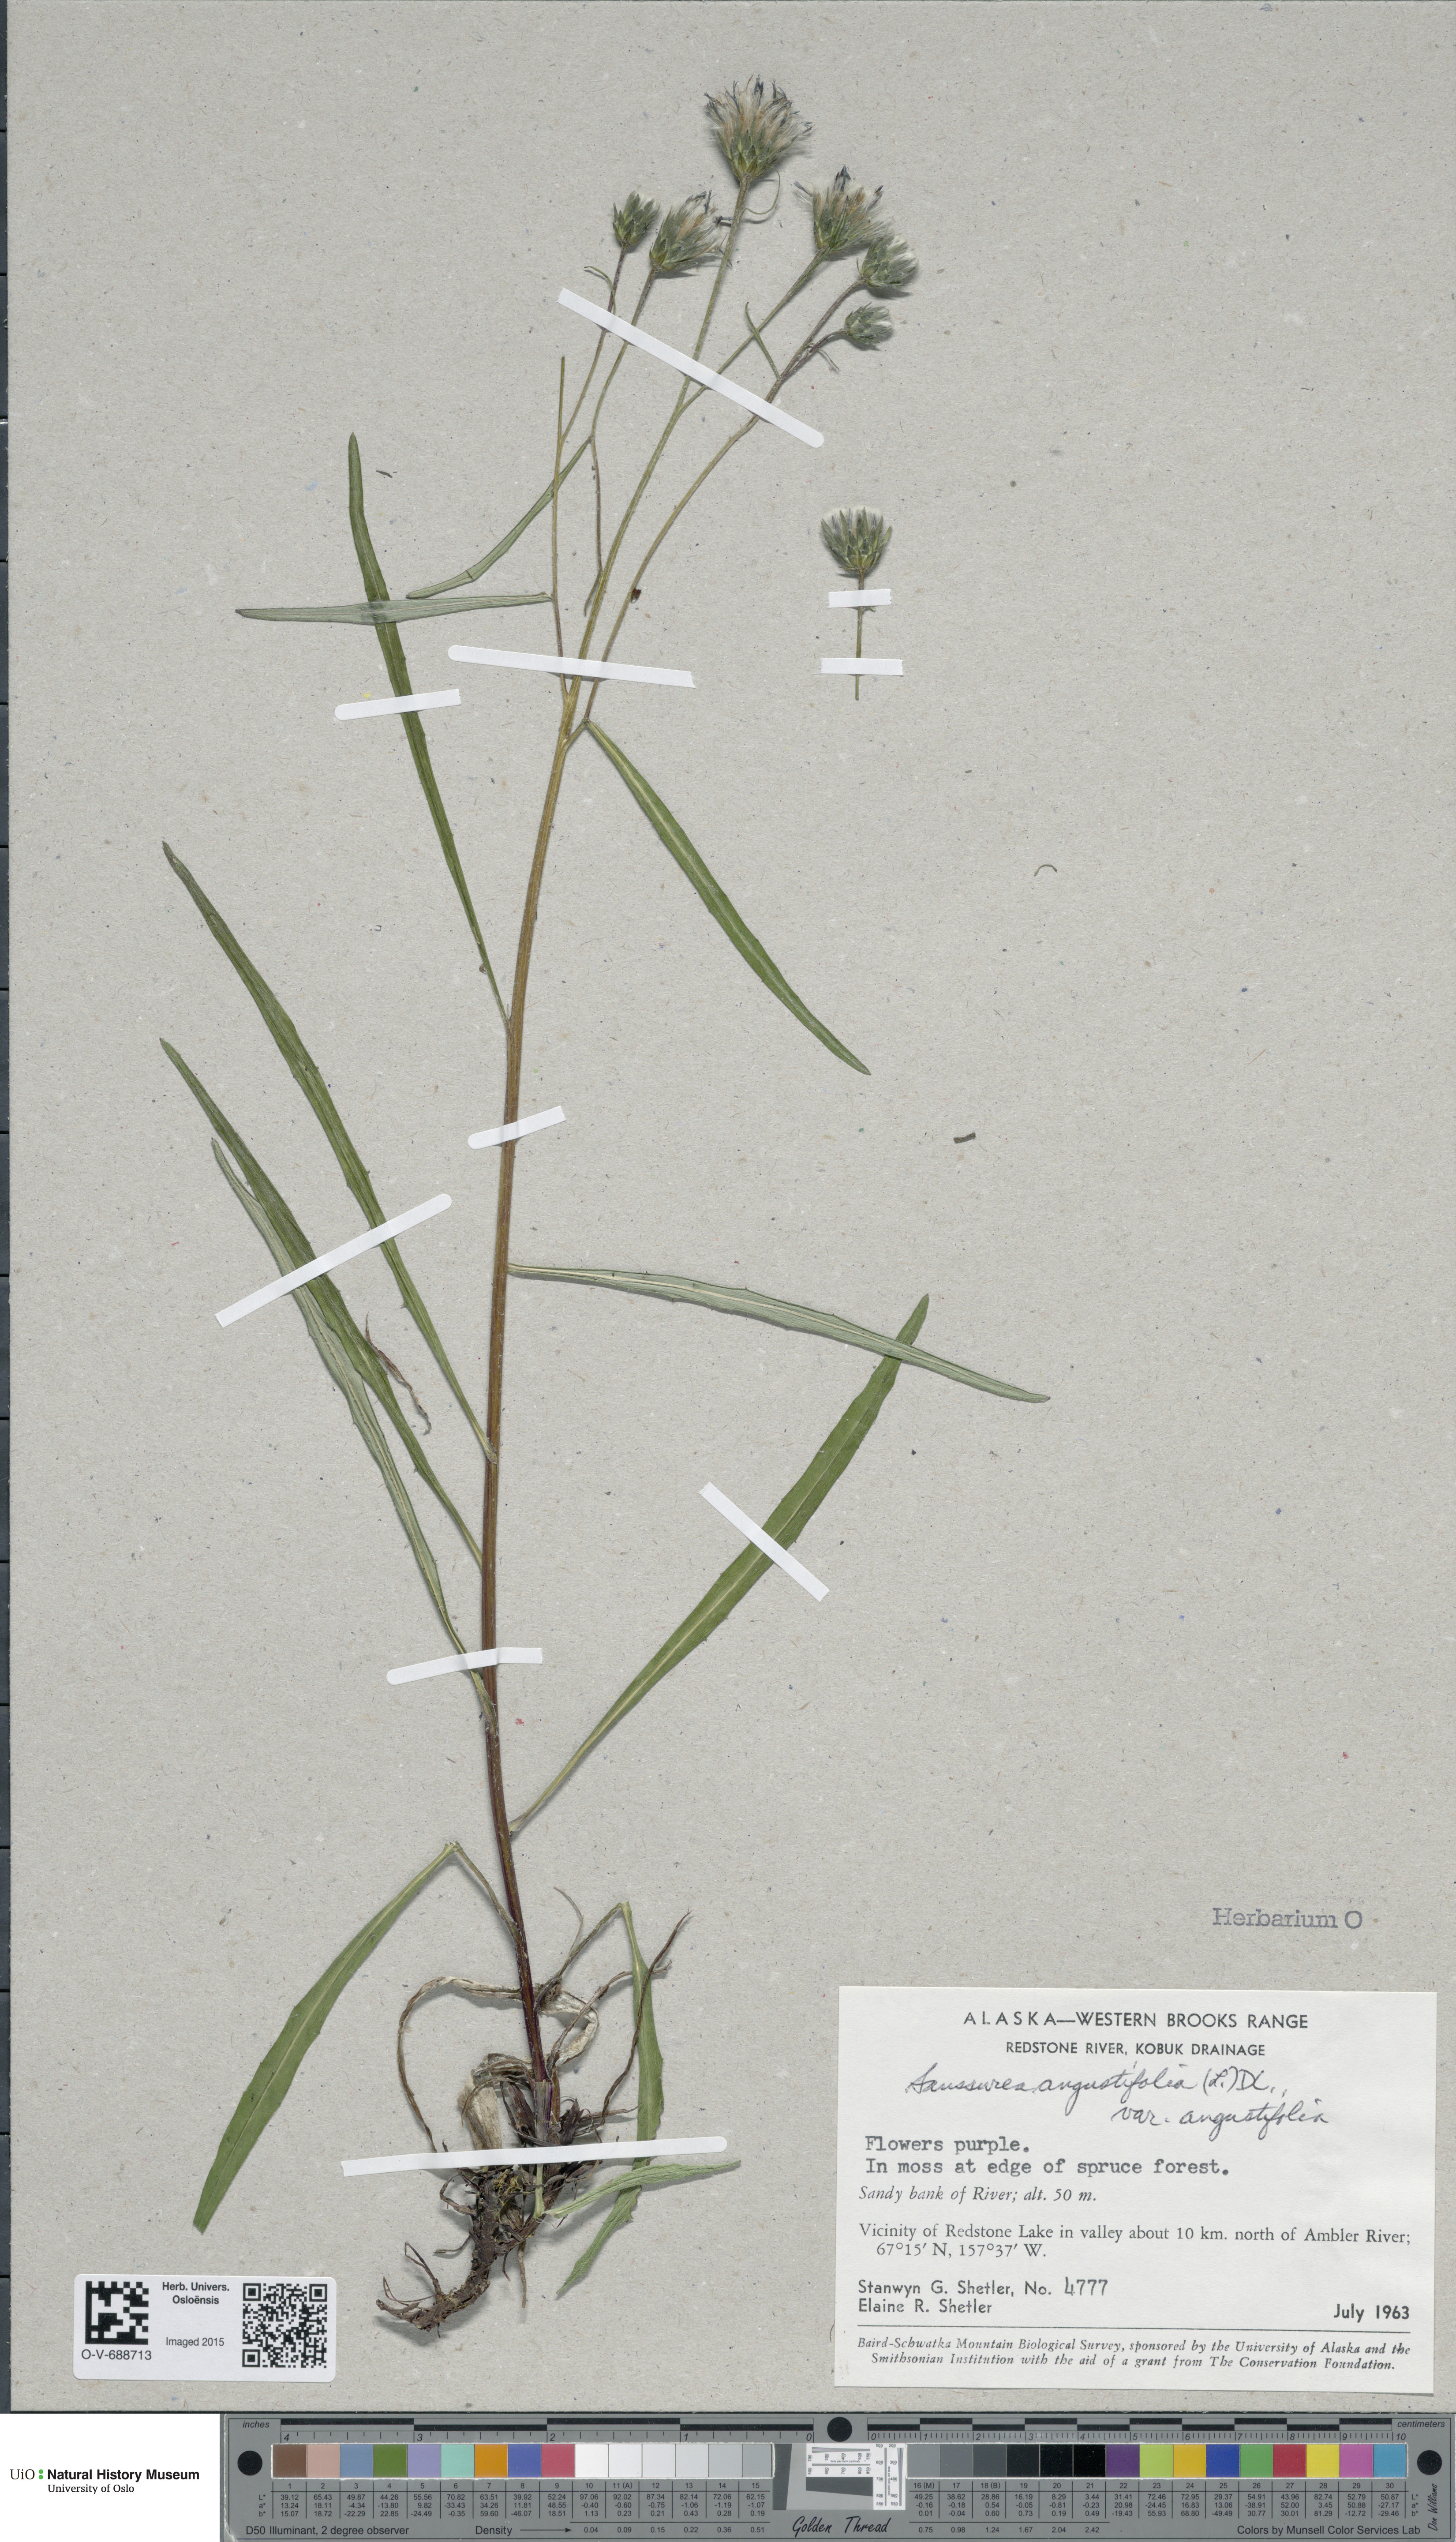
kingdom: Plantae
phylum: Tracheophyta
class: Magnoliopsida
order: Asterales
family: Asteraceae
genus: Saussurea
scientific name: Saussurea angustifolia
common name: Common saussurea
